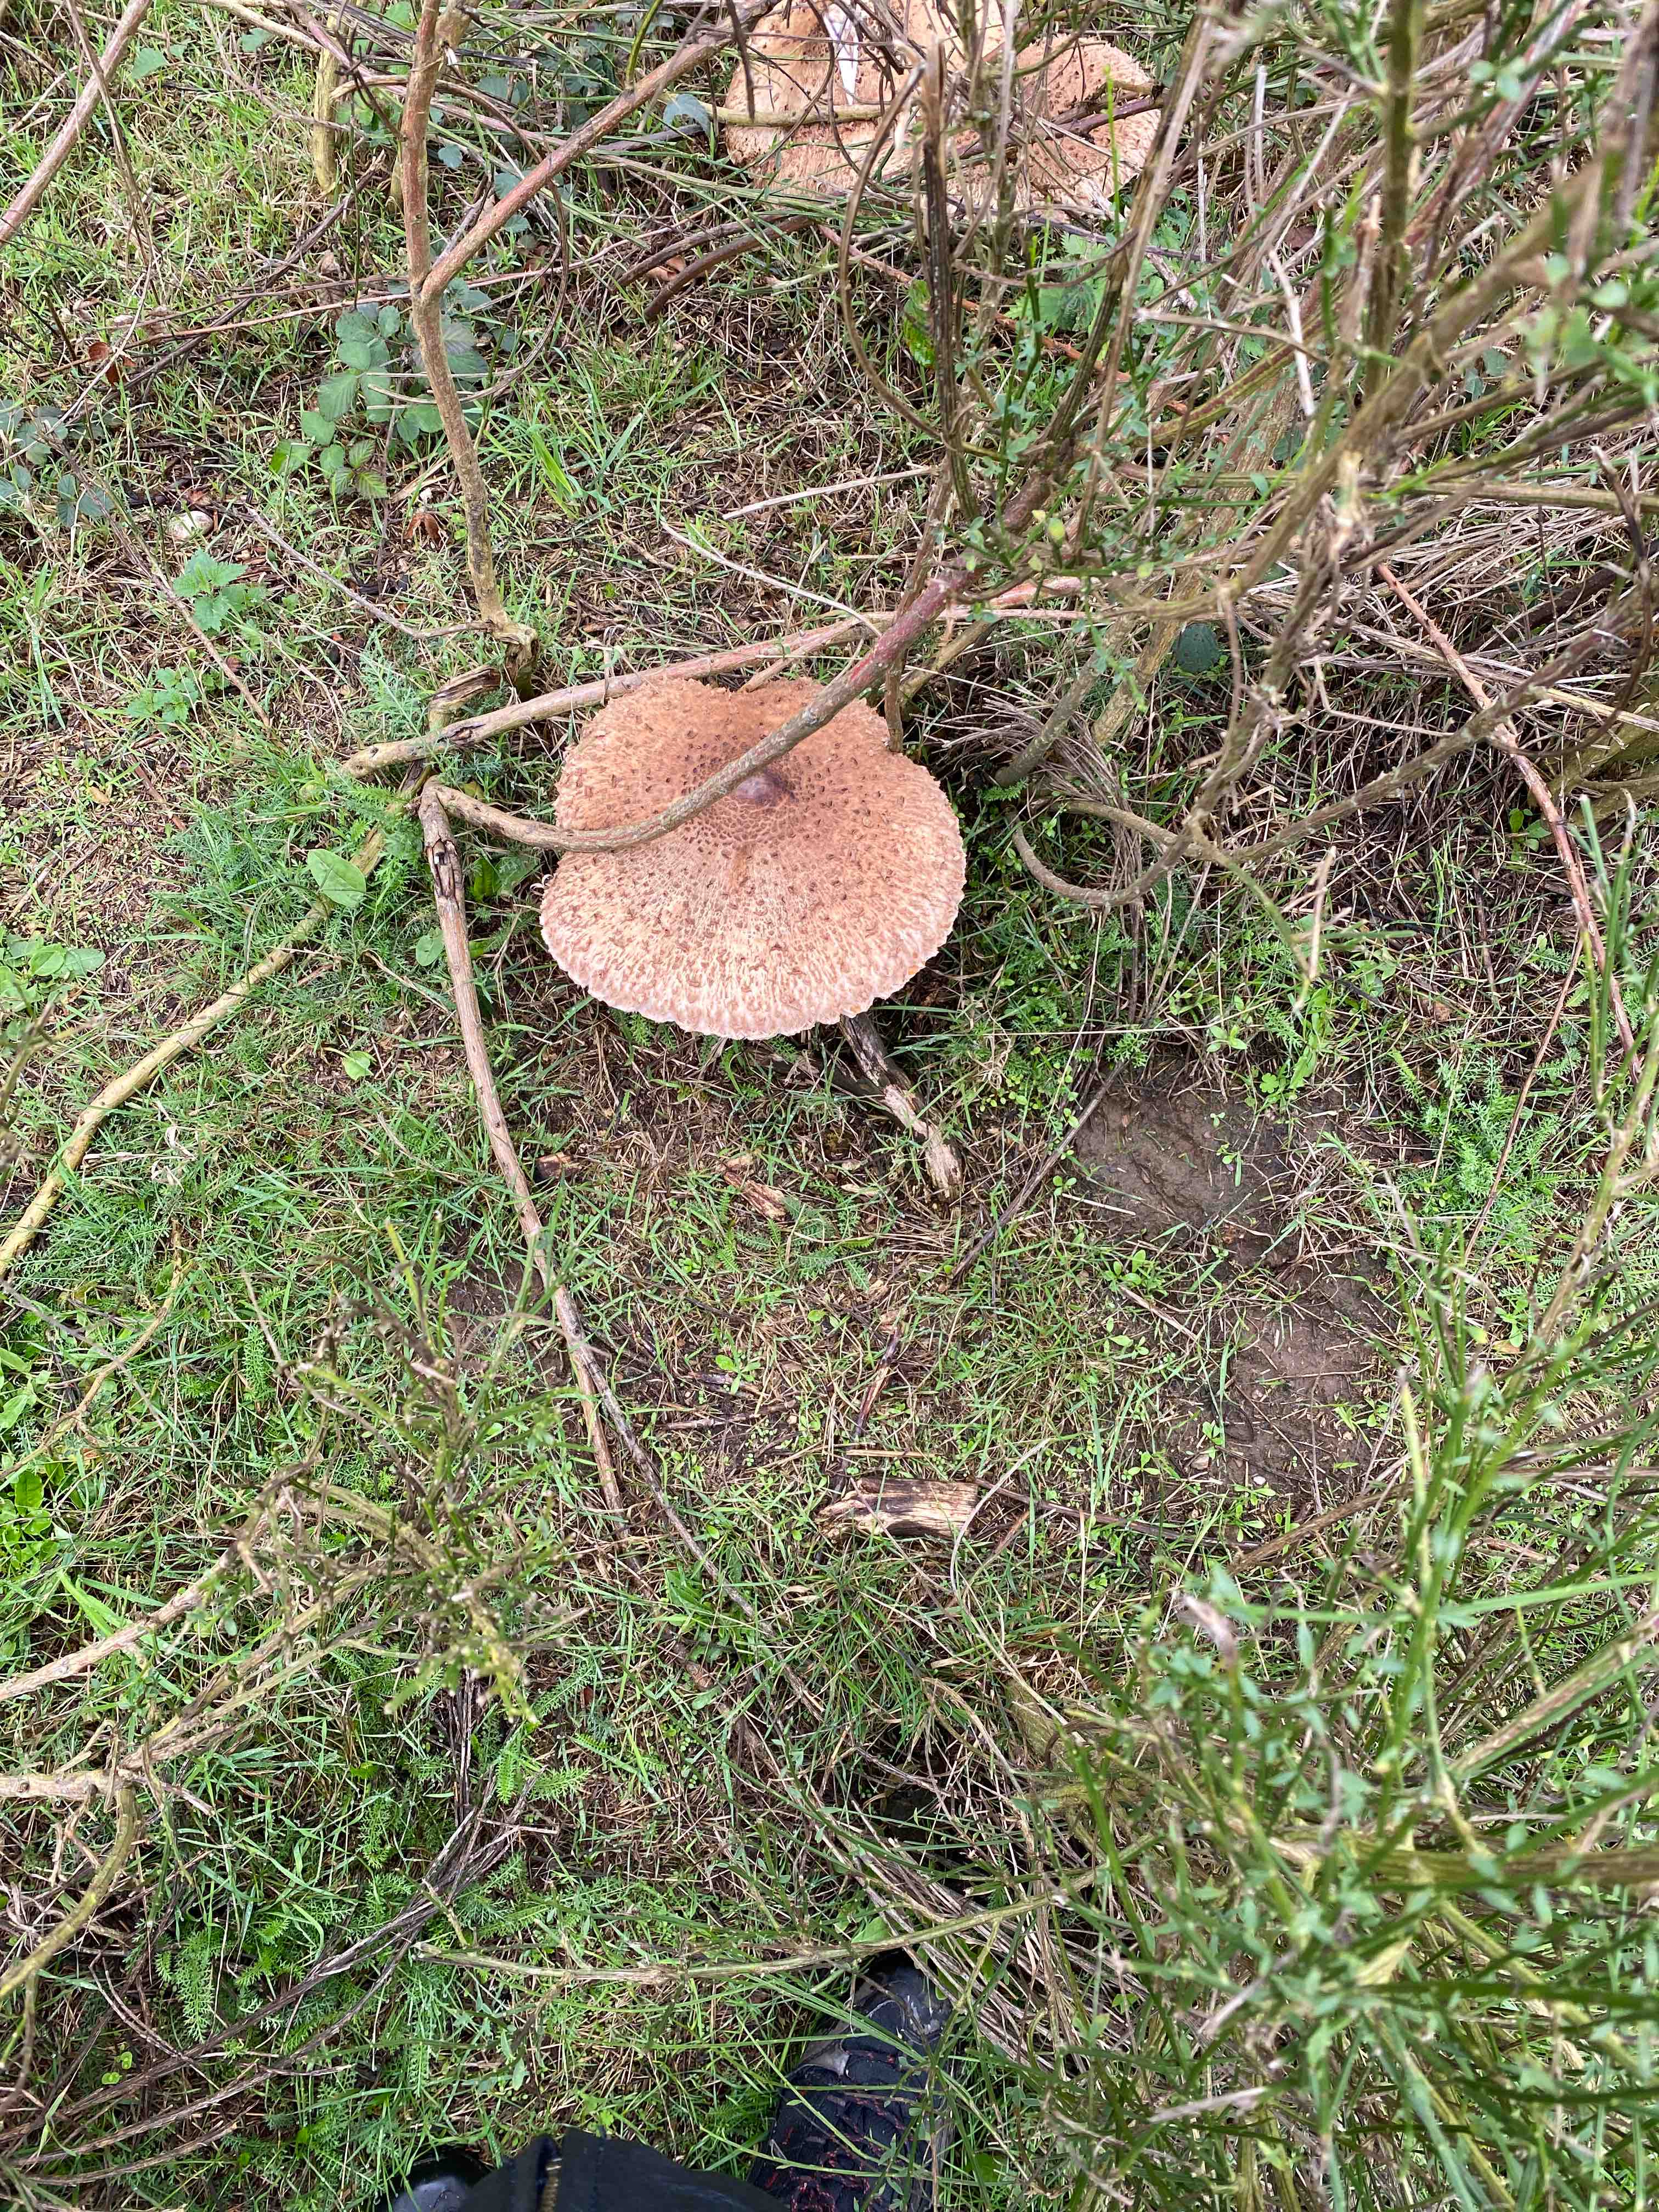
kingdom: Fungi
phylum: Basidiomycota
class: Agaricomycetes
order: Agaricales
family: Agaricaceae
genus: Macrolepiota
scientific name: Macrolepiota
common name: kæmpeparasolhat
